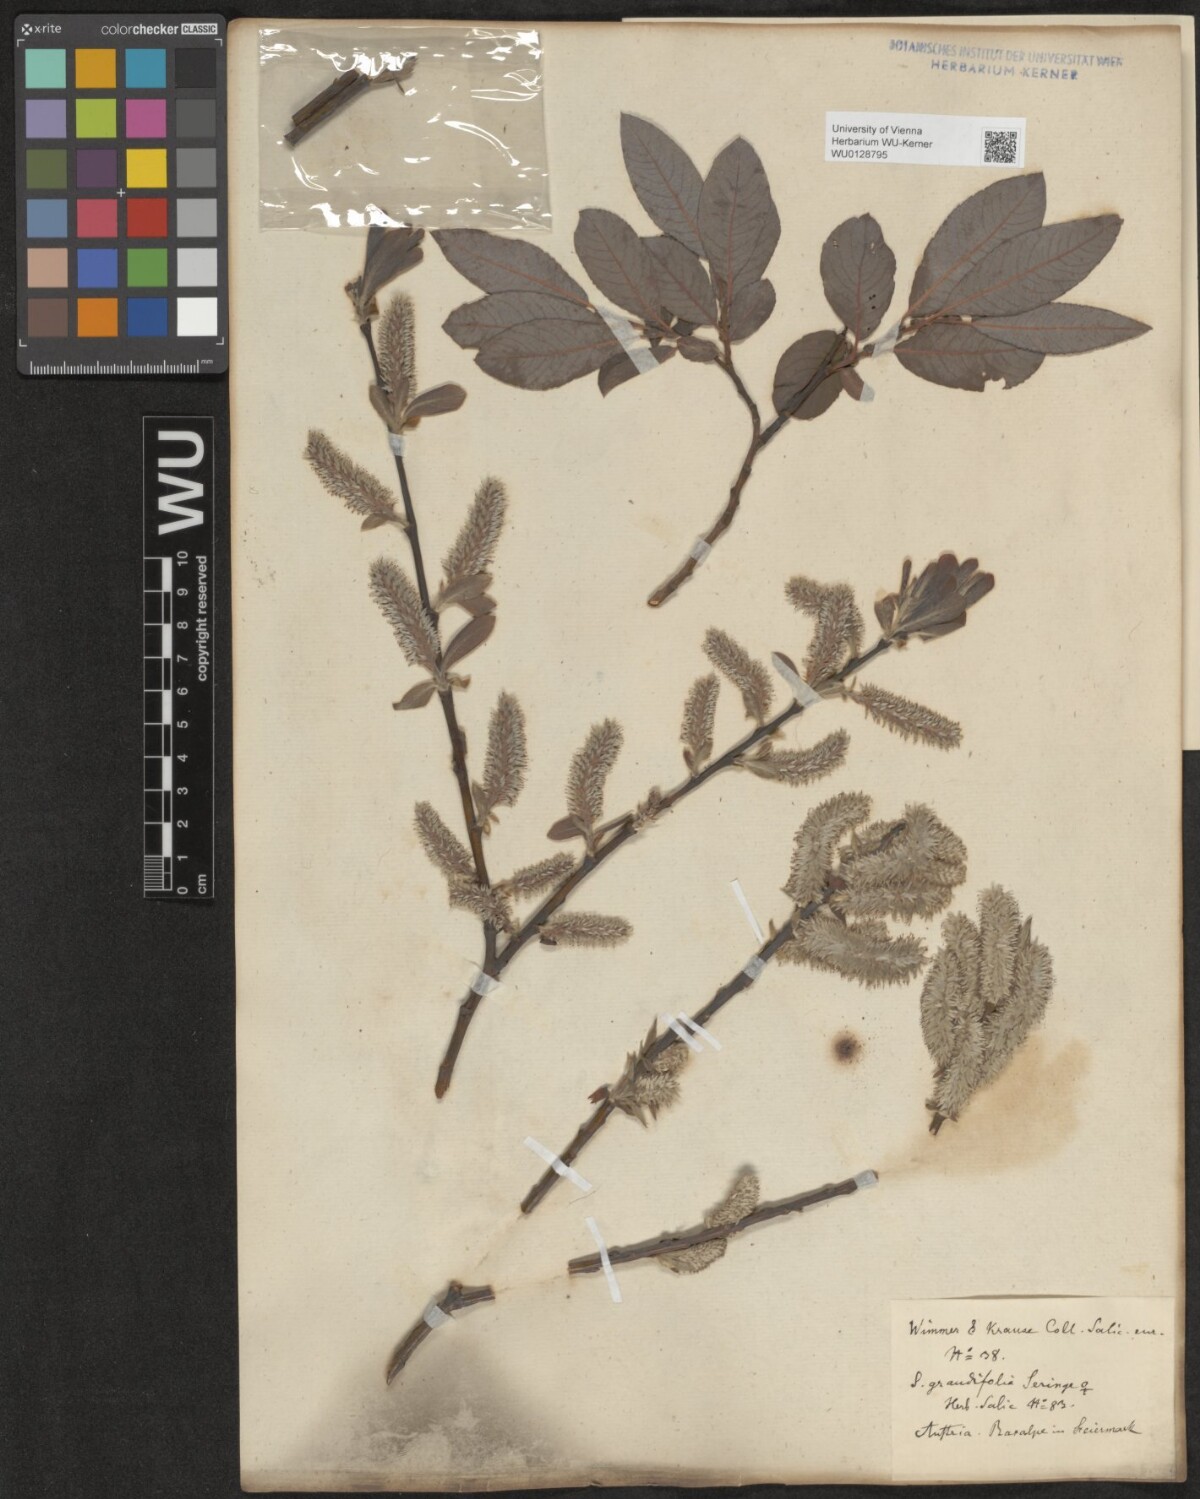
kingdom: Plantae
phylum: Tracheophyta
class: Magnoliopsida
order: Malpighiales
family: Salicaceae
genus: Salix
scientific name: Salix appendiculata
